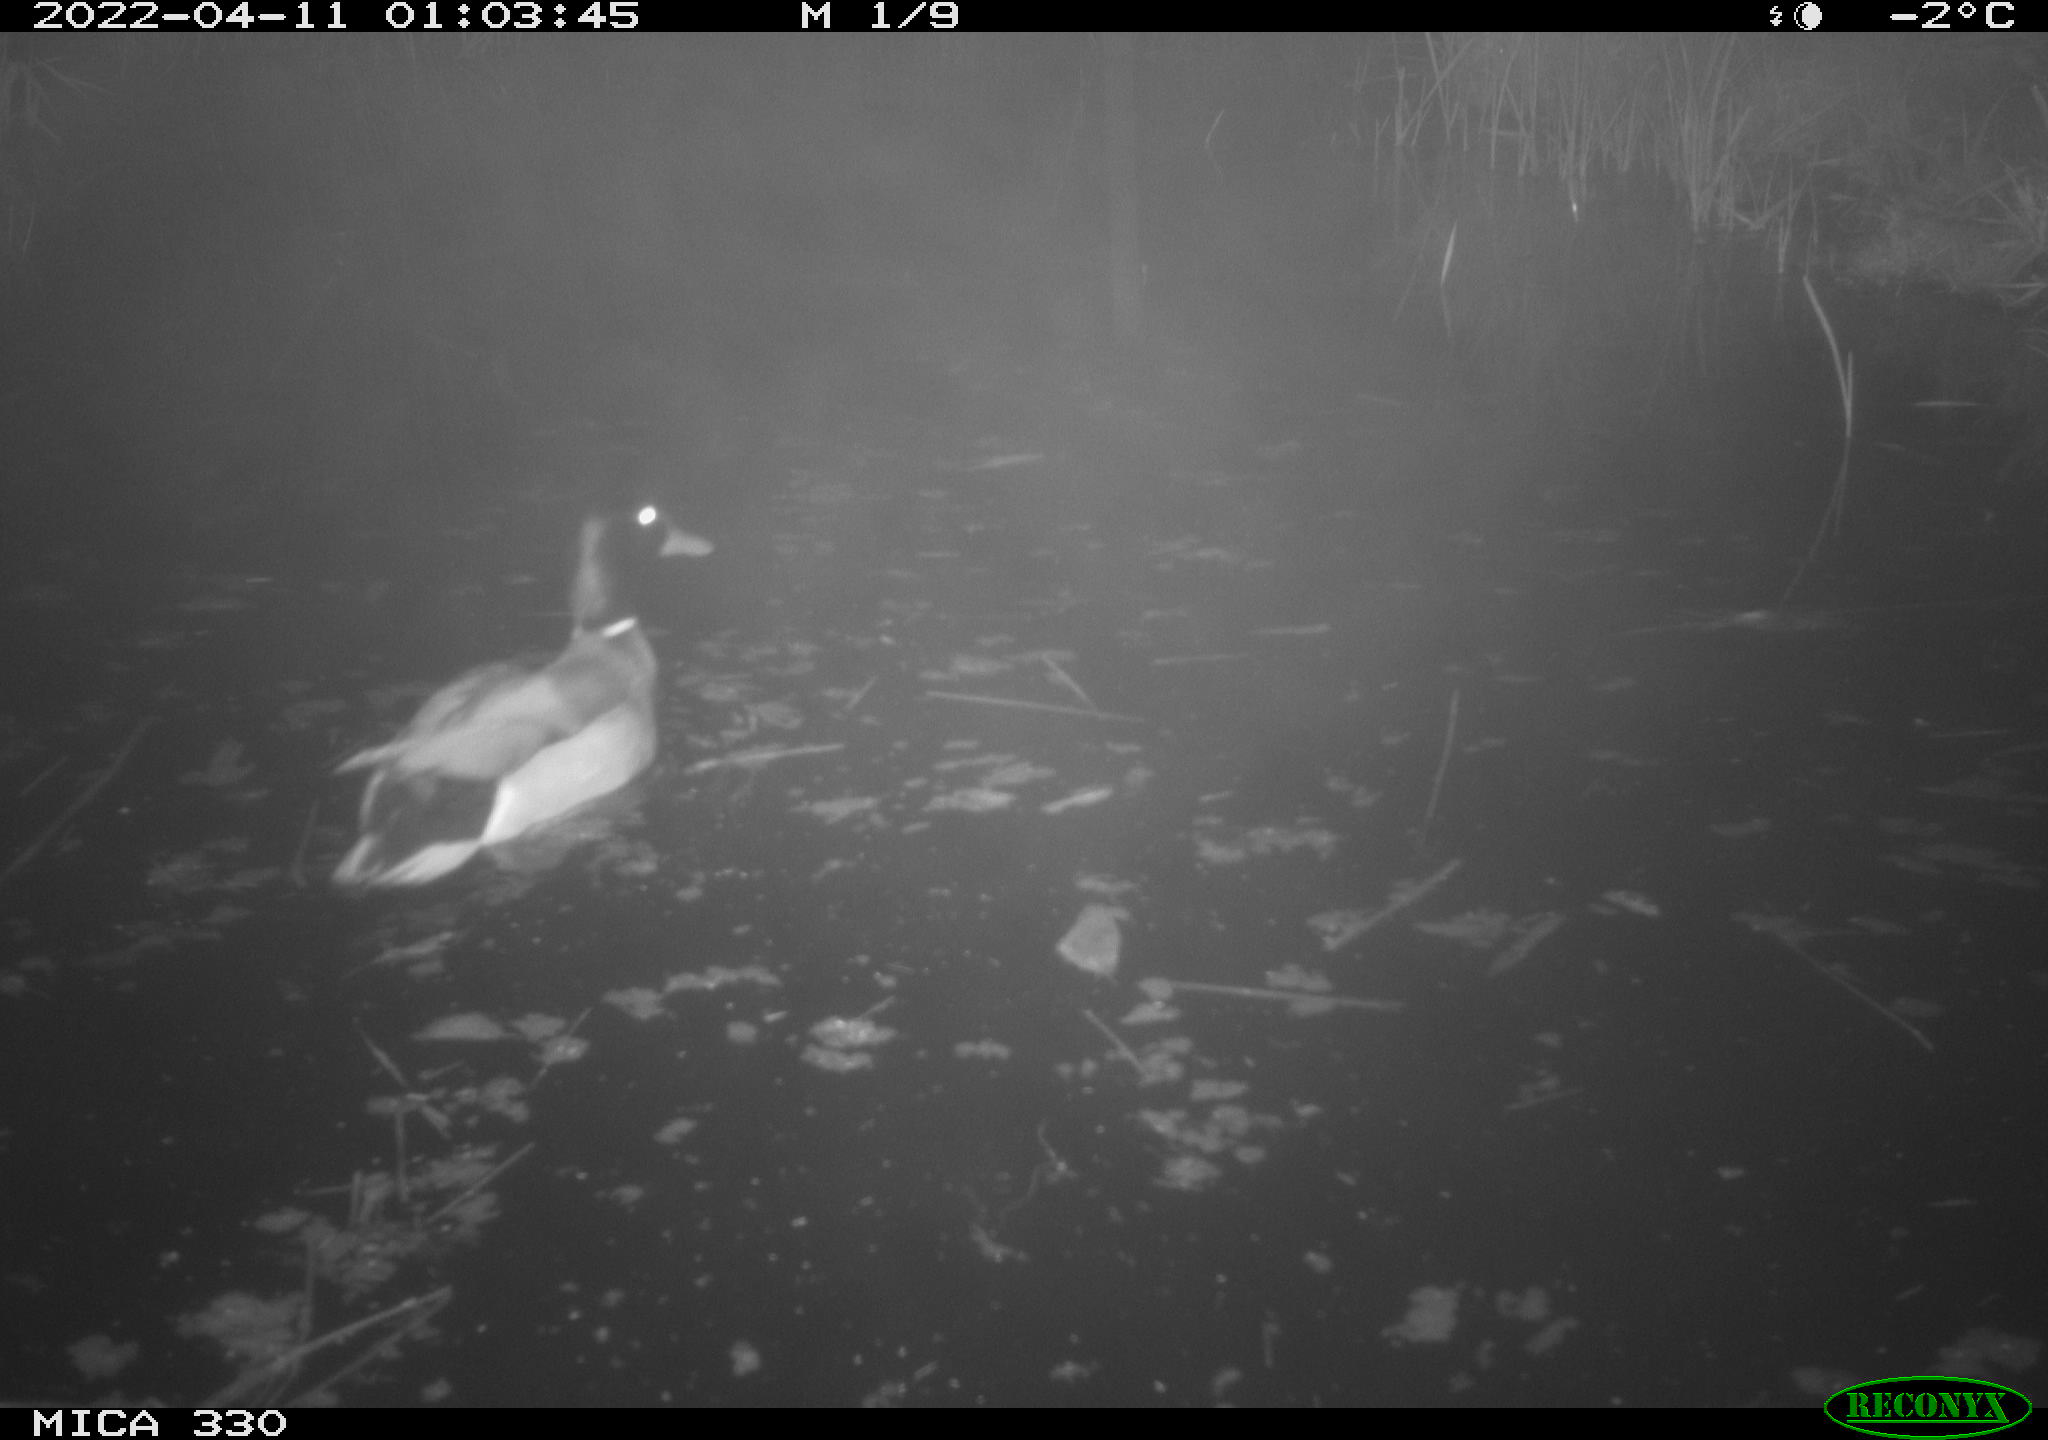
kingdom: Animalia
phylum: Chordata
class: Aves
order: Anseriformes
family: Anatidae
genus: Anas
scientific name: Anas platyrhynchos
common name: Mallard
